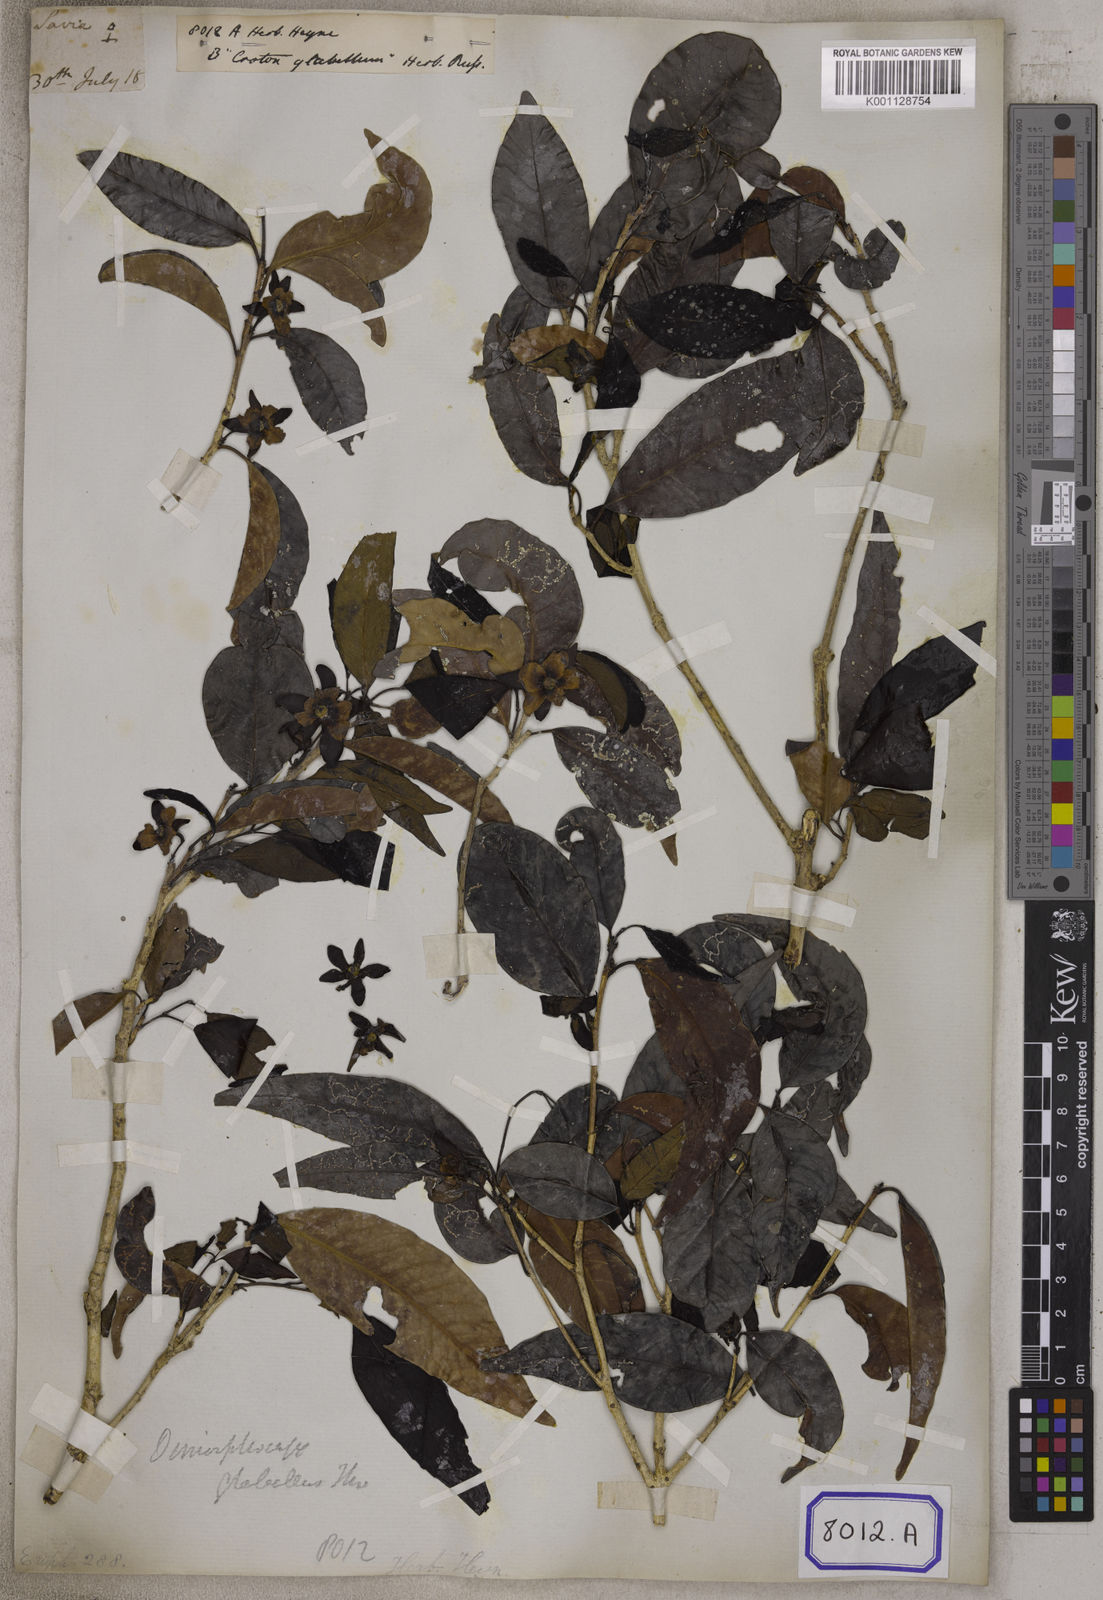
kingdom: Plantae
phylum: Tracheophyta
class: Magnoliopsida
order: Malpighiales
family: Euphorbiaceae
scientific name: Euphorbiaceae
